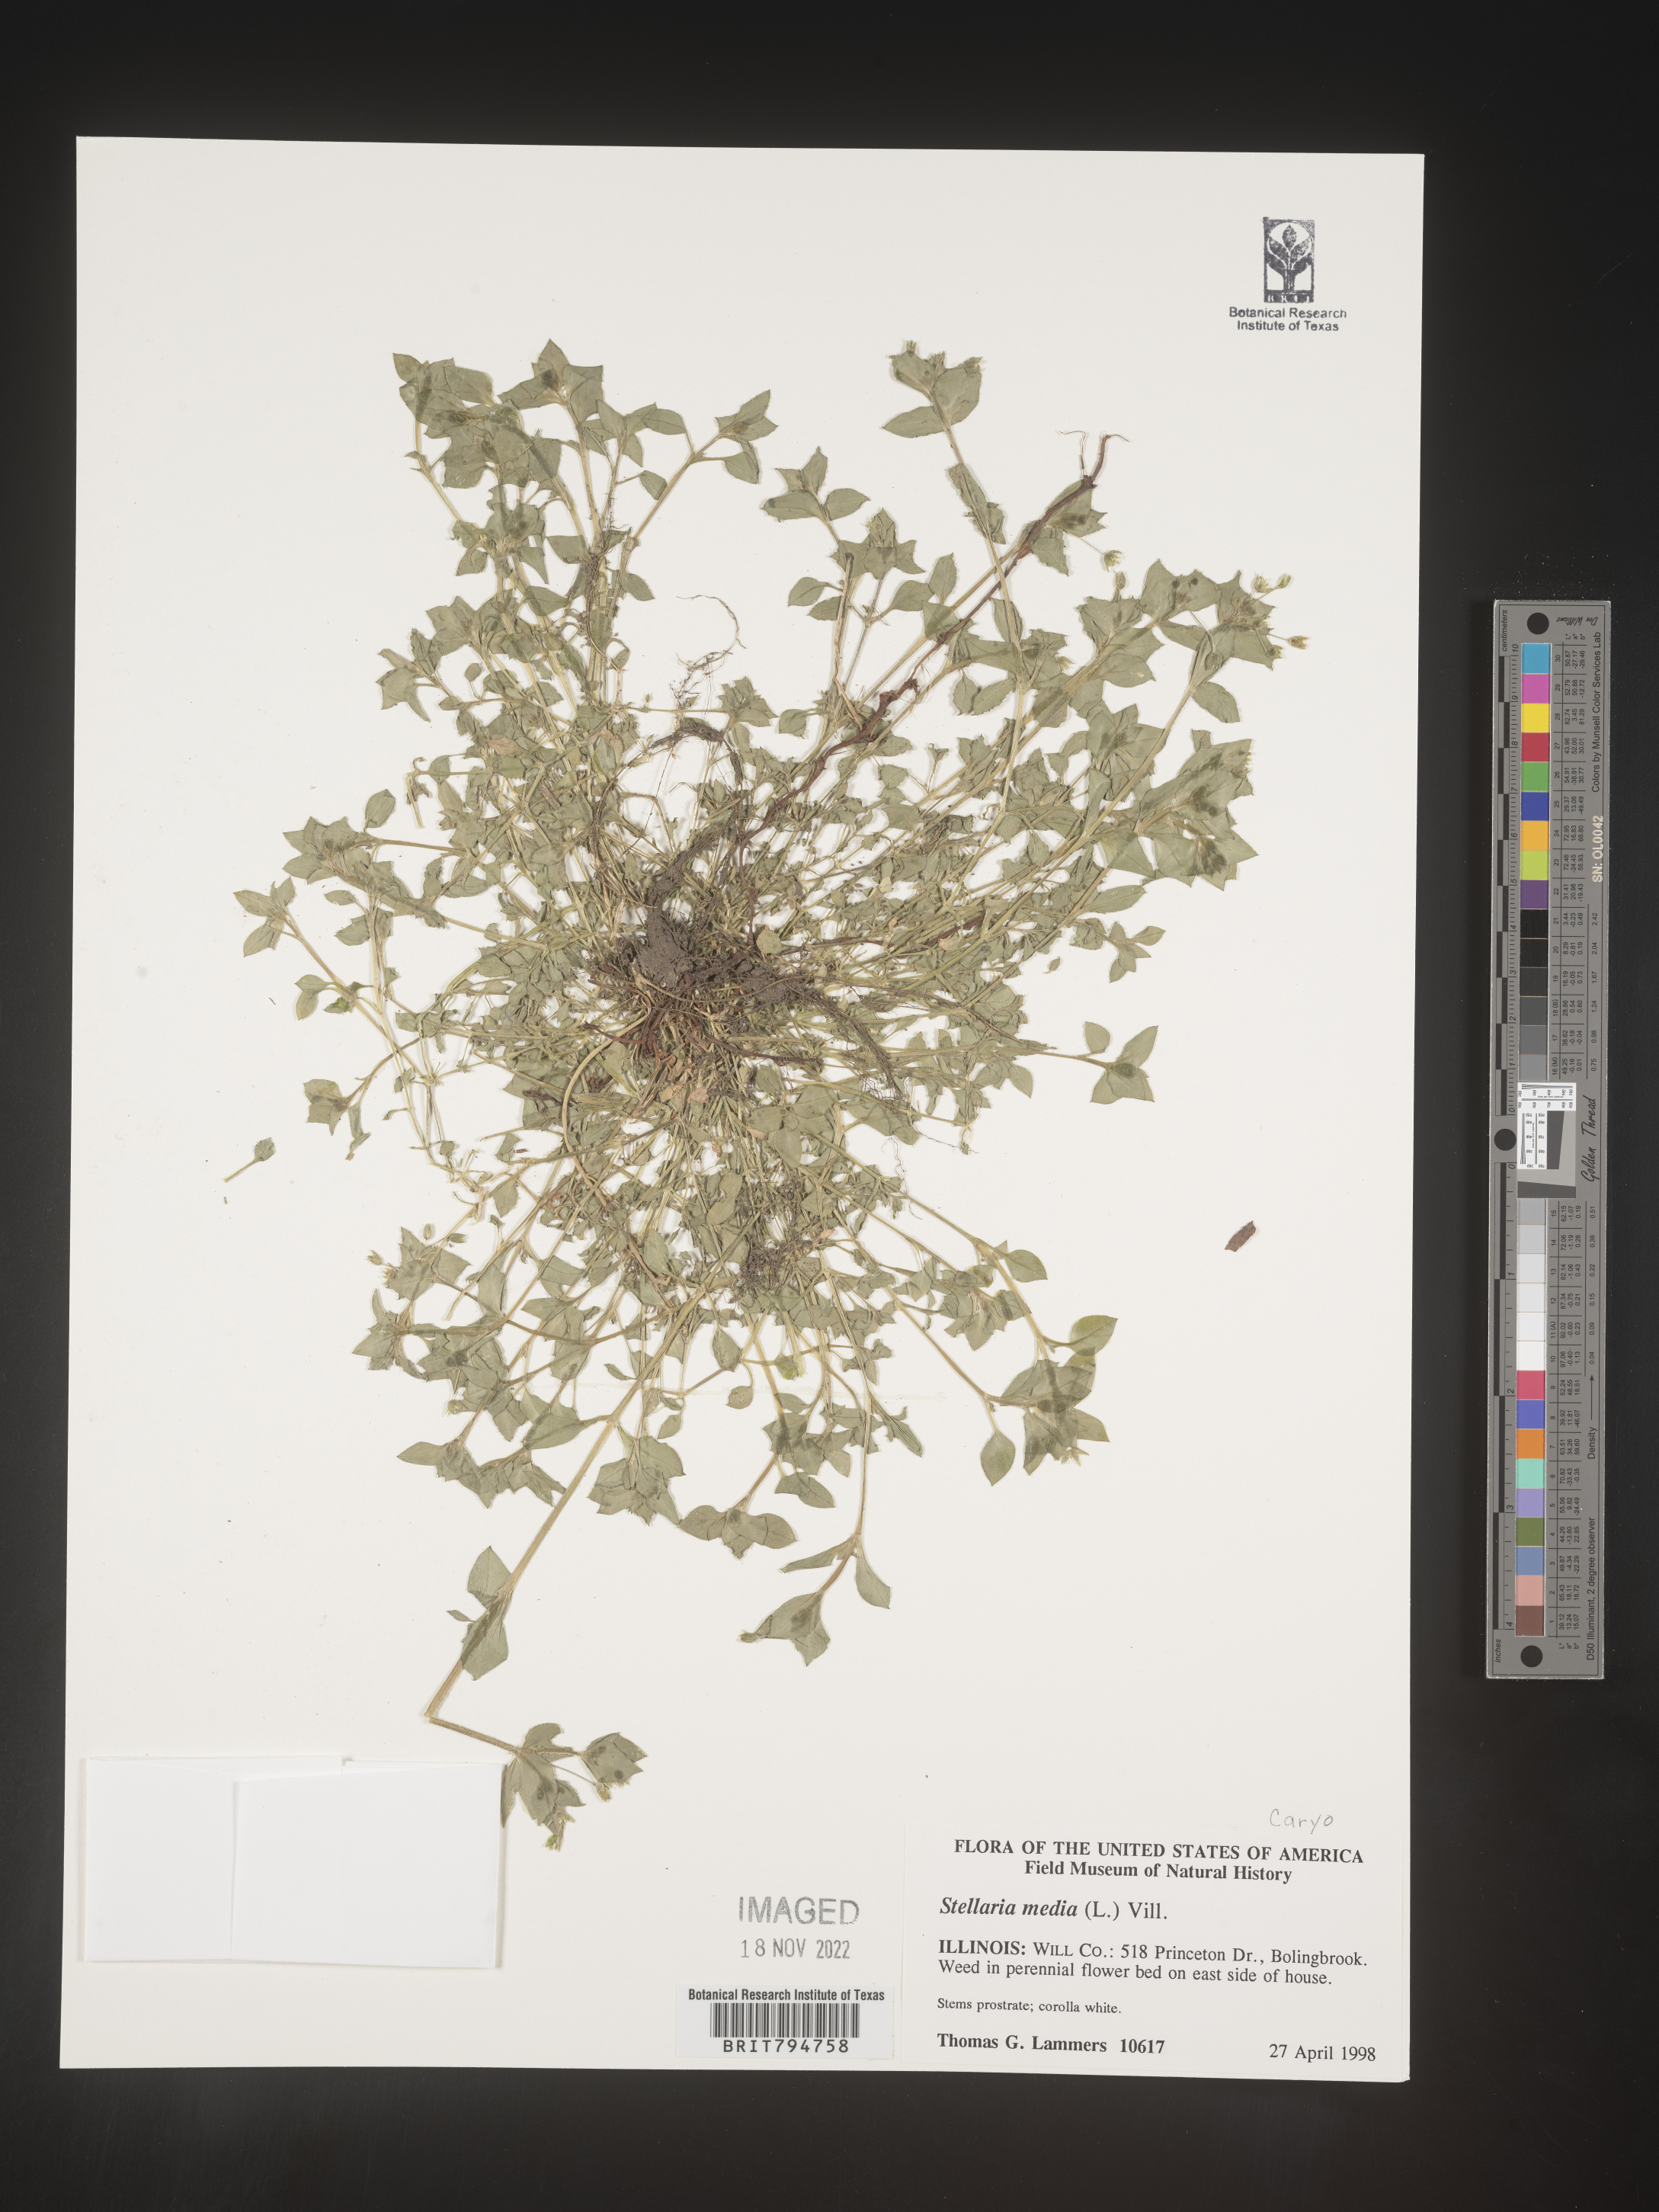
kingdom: Plantae
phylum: Tracheophyta
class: Magnoliopsida
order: Caryophyllales
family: Caryophyllaceae
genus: Stellaria
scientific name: Stellaria media
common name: Common chickweed
